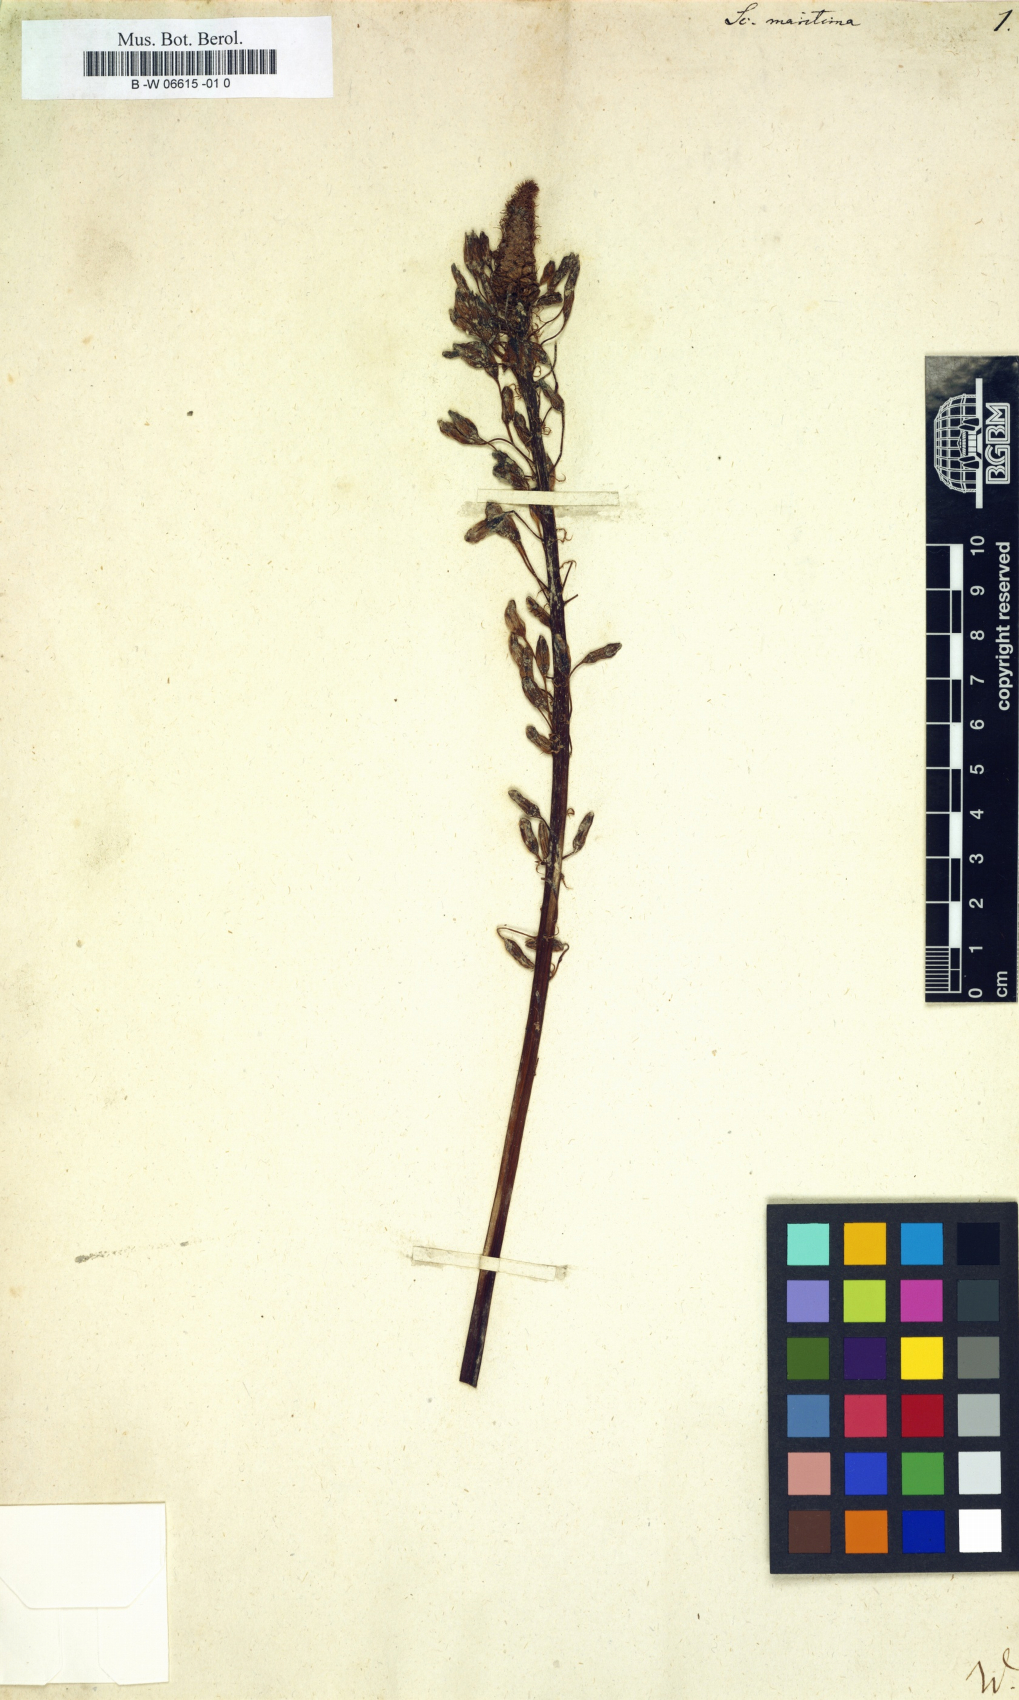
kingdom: Plantae
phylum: Tracheophyta
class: Liliopsida
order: Asparagales
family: Asparagaceae
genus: Drimia
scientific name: Drimia maritima
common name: Maritime squill
